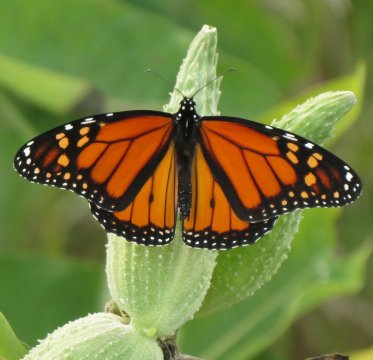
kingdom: Animalia
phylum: Arthropoda
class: Insecta
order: Lepidoptera
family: Nymphalidae
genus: Danaus
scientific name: Danaus plexippus
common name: Monarch
